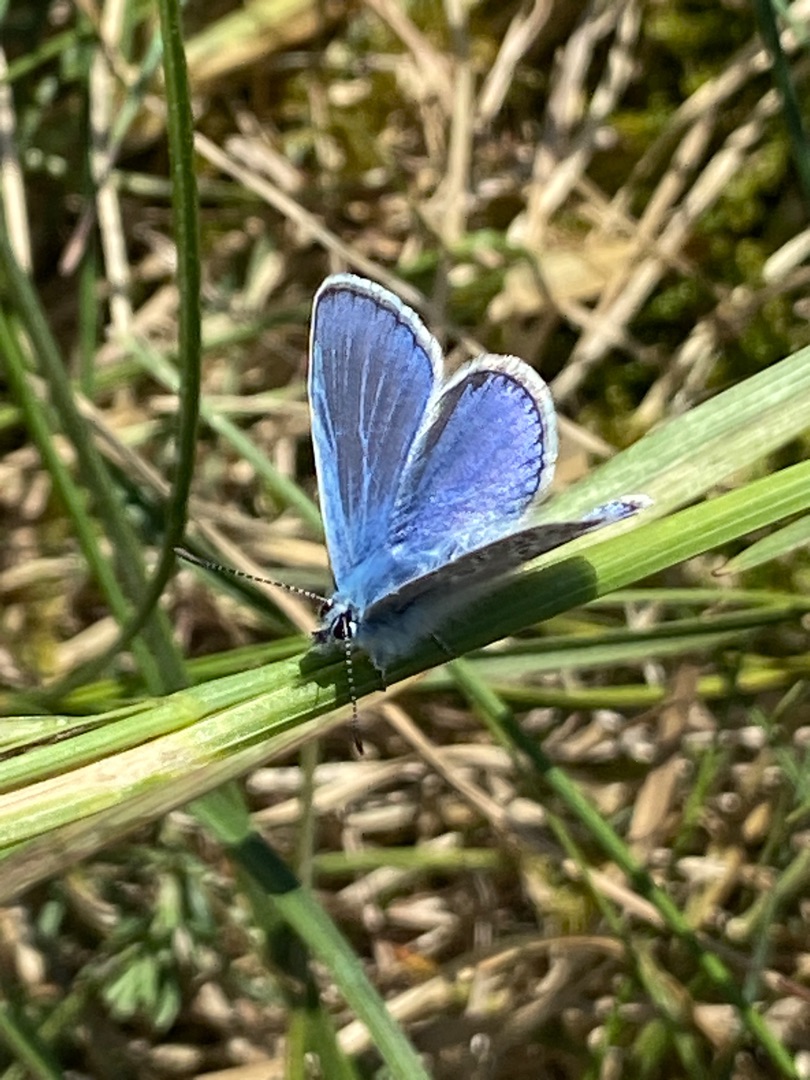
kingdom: Animalia
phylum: Arthropoda
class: Insecta
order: Lepidoptera
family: Lycaenidae
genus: Polyommatus
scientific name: Polyommatus icarus
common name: Almindelig blåfugl
